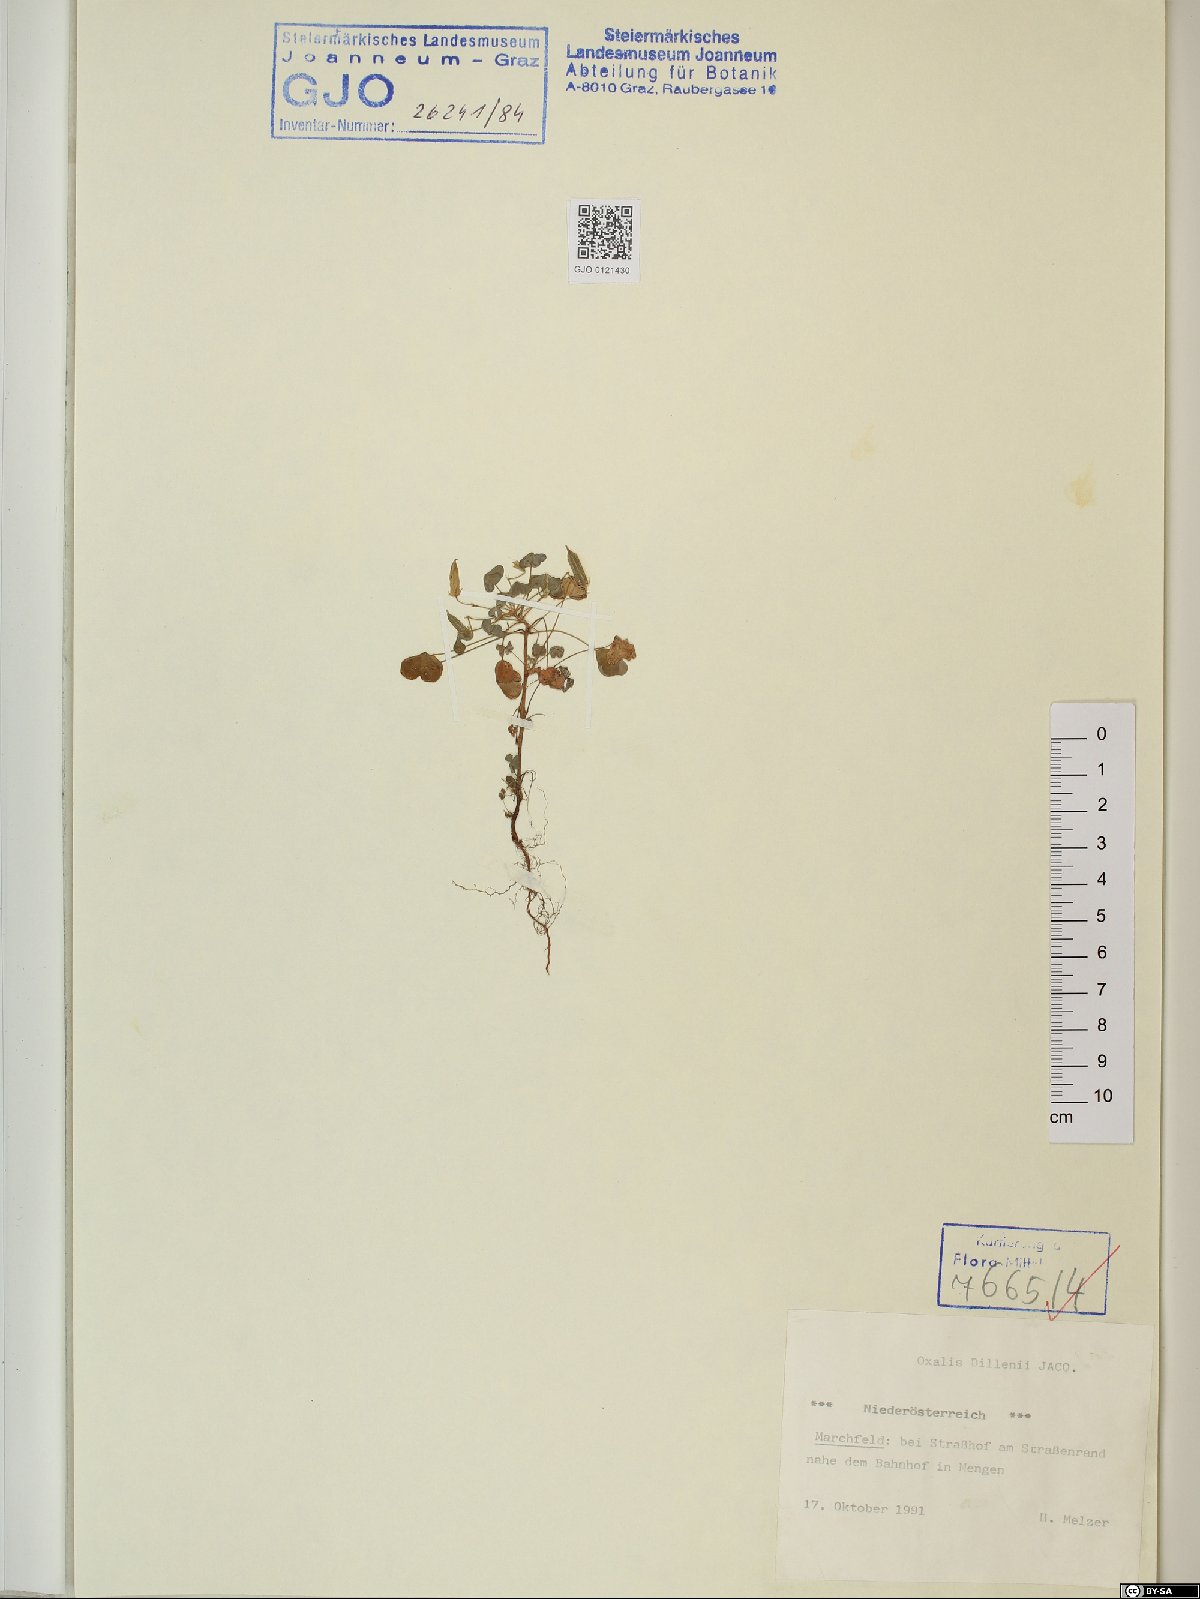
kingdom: Plantae
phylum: Tracheophyta
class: Magnoliopsida
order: Oxalidales
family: Oxalidaceae
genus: Oxalis
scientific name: Oxalis dillenii
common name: Sussex yellow-sorrel
